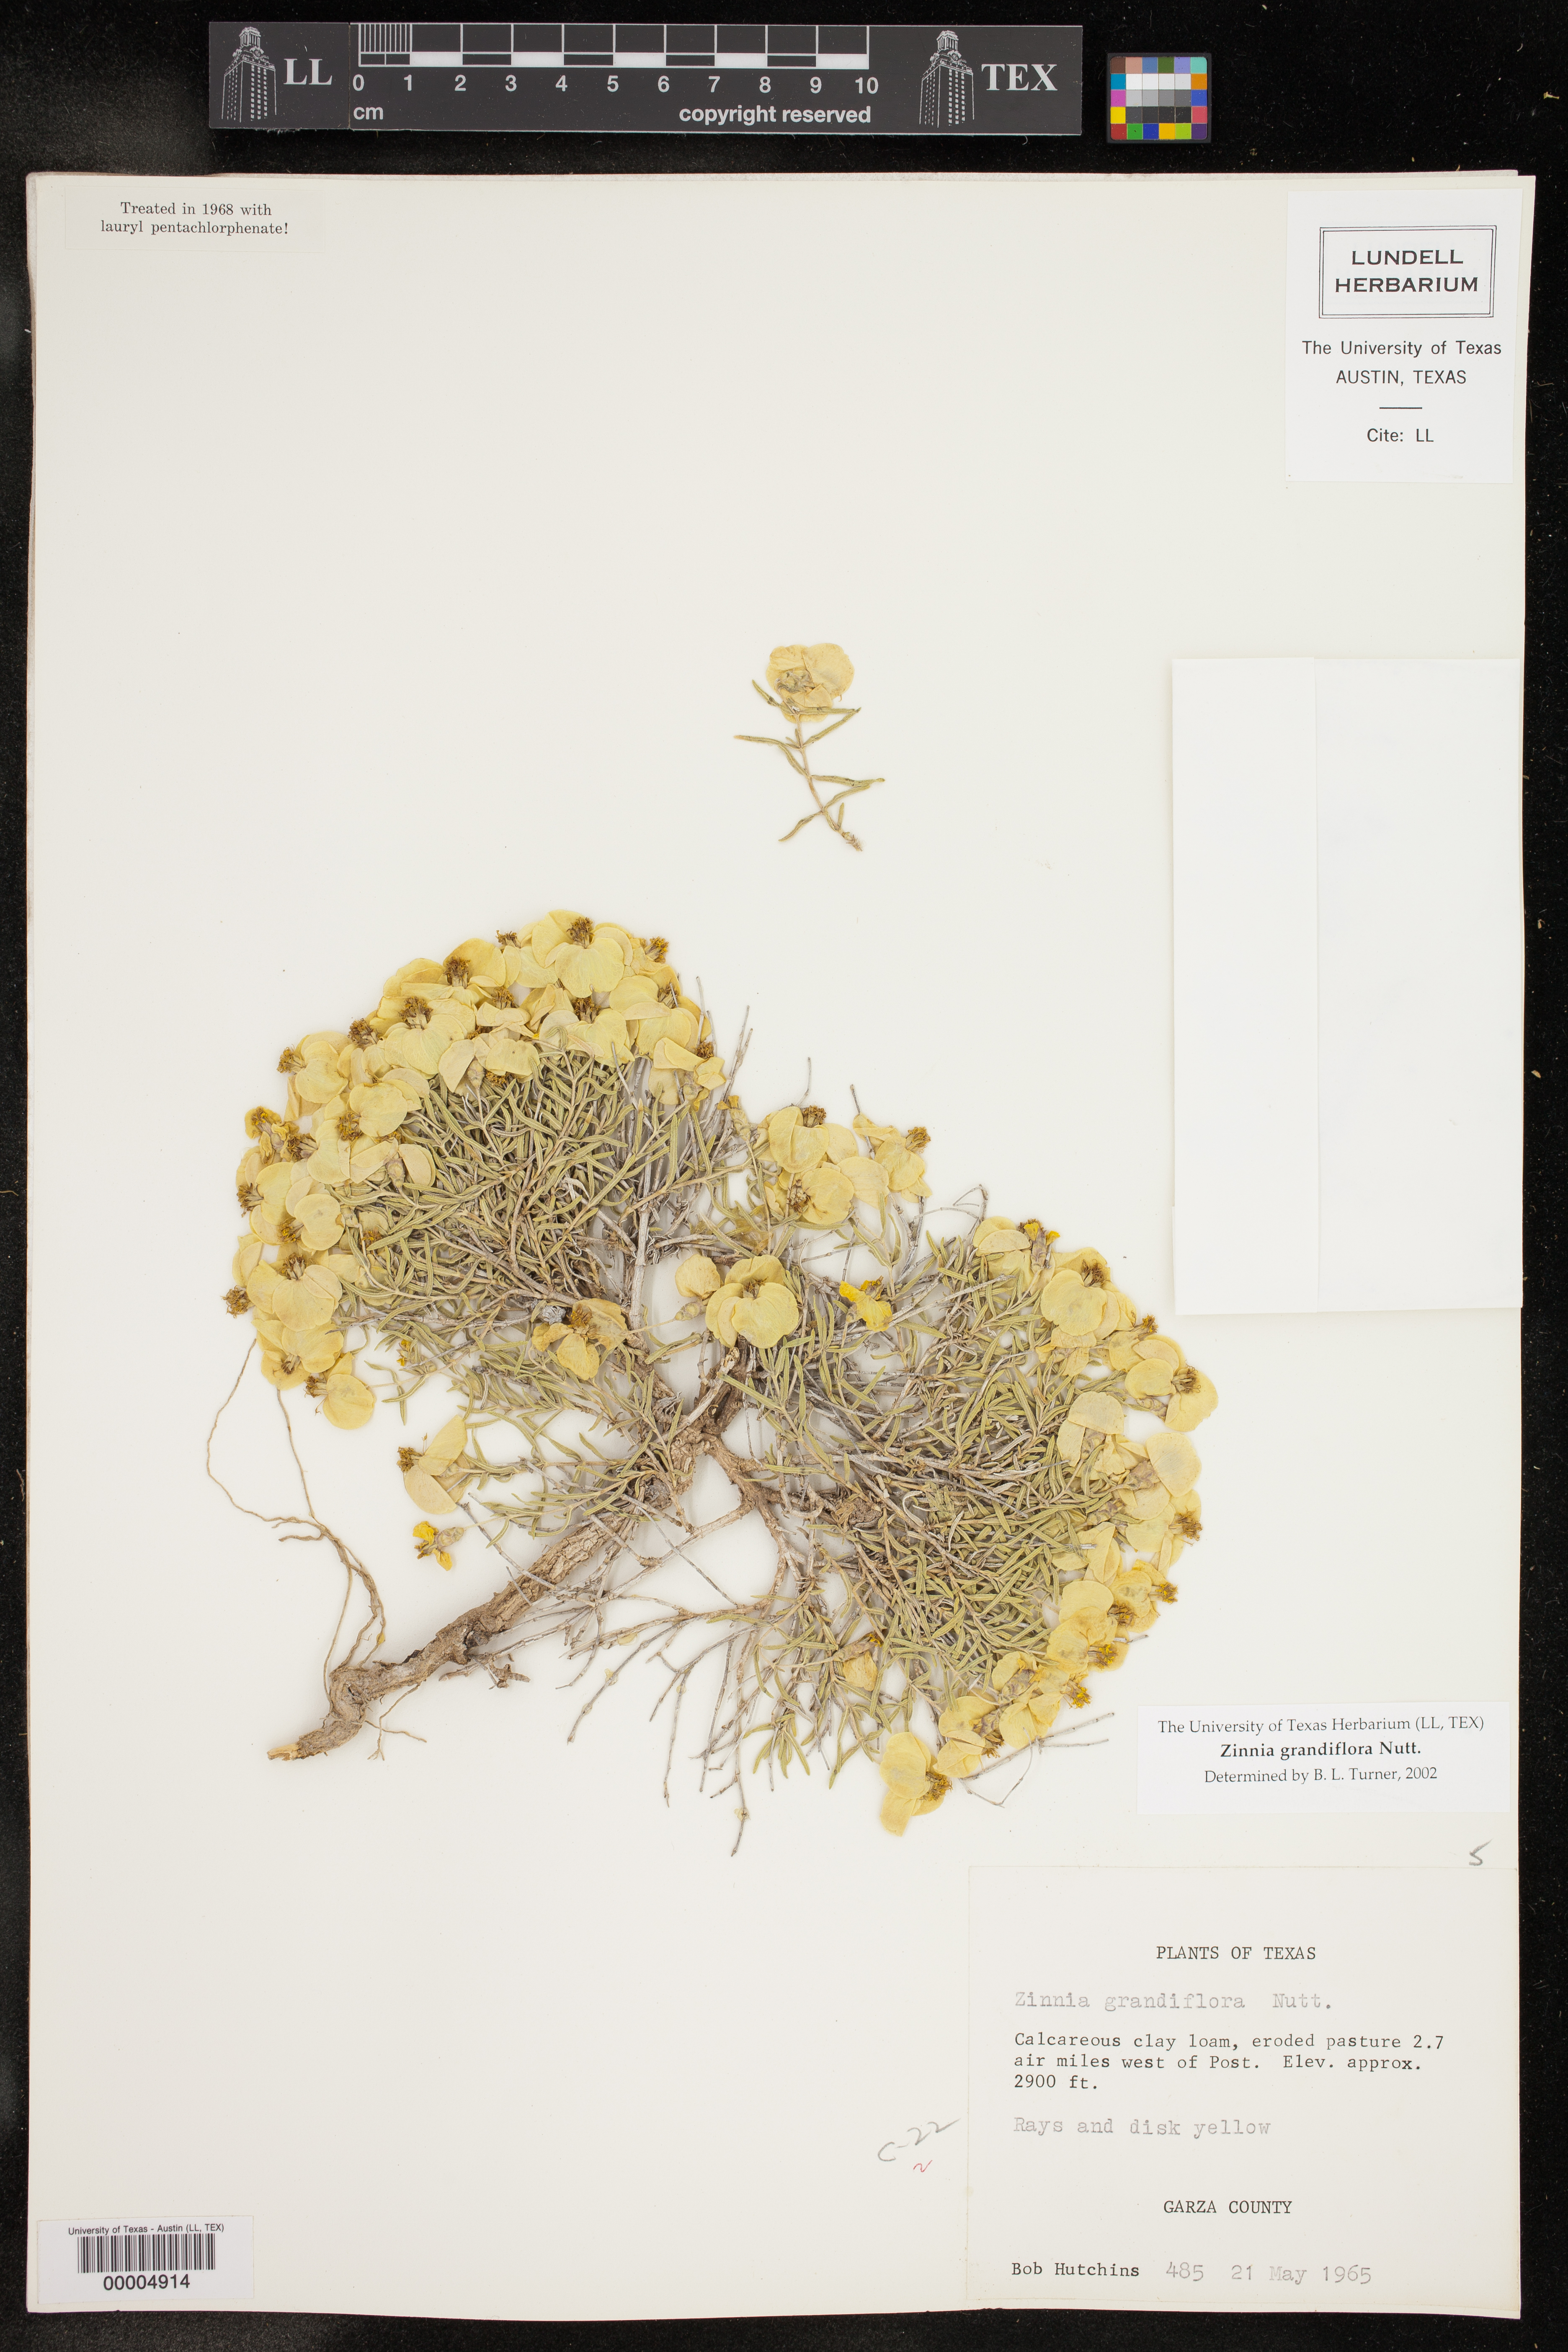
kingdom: Plantae
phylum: Tracheophyta
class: Magnoliopsida
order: Asterales
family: Asteraceae
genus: Zinnia
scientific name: Zinnia grandiflora
